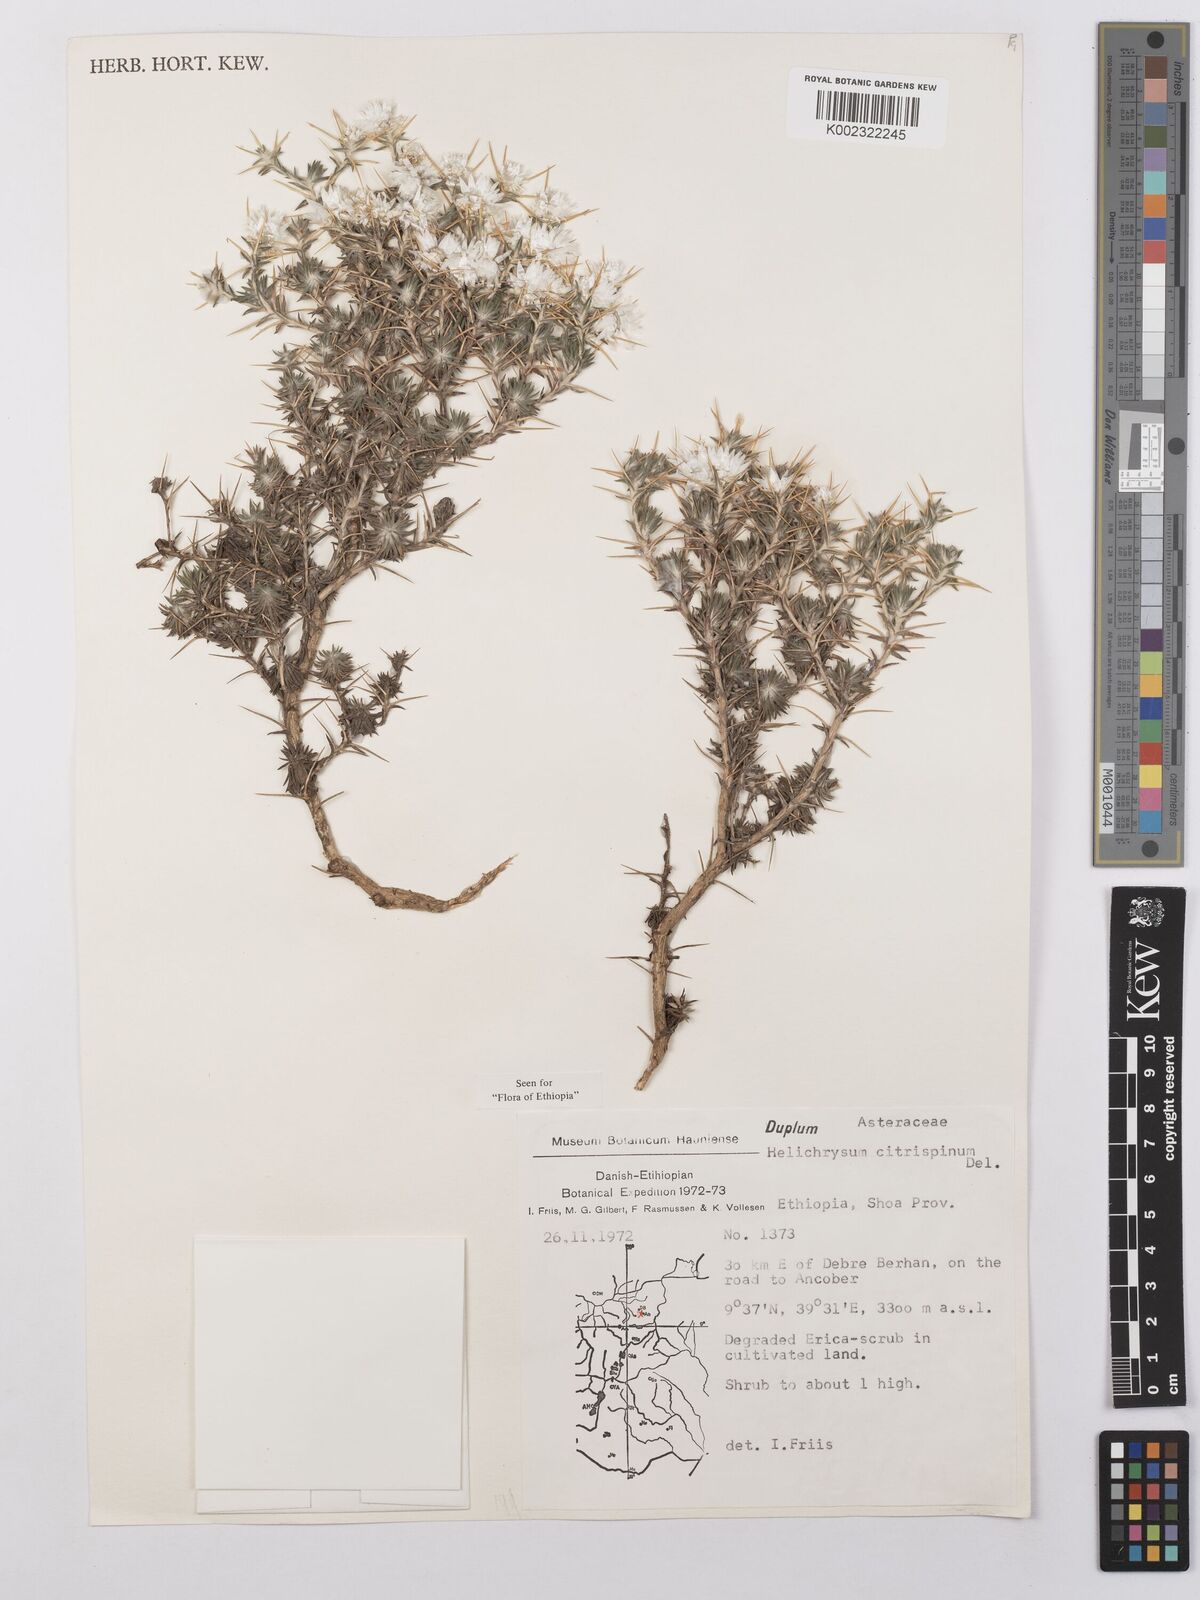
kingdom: Plantae
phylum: Tracheophyta
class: Magnoliopsida
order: Asterales
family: Asteraceae
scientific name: Asteraceae
